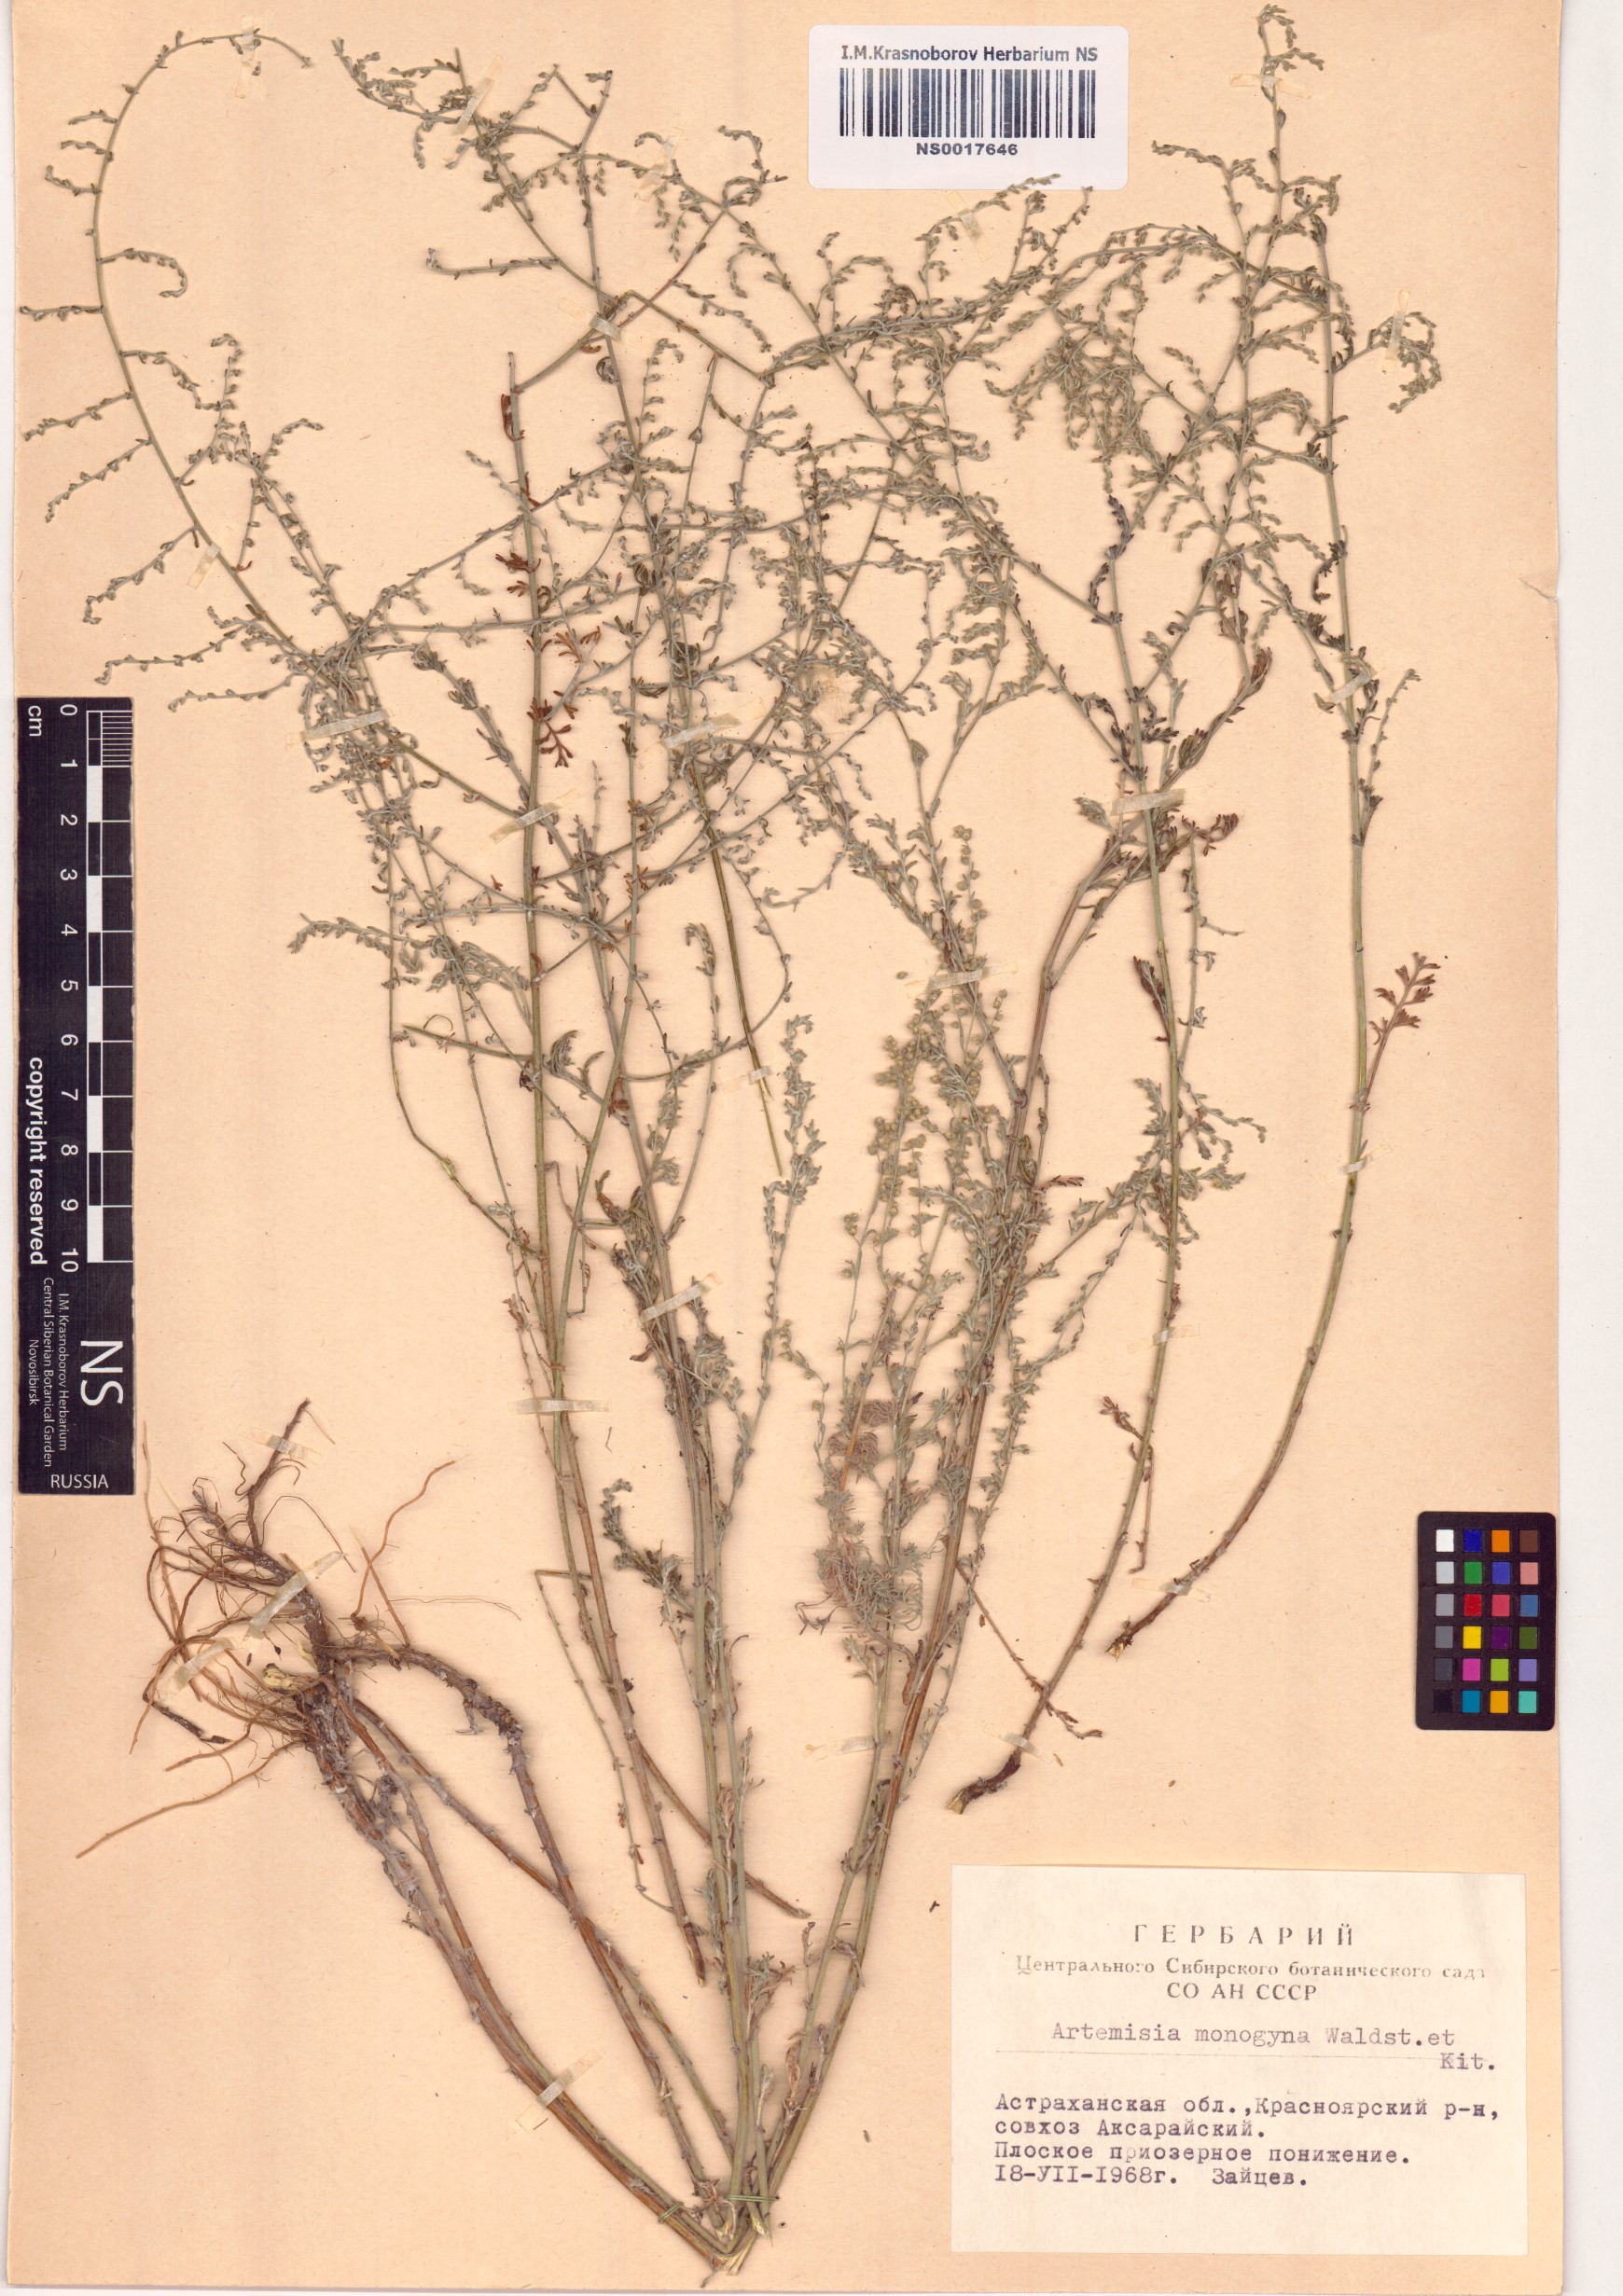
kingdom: Plantae
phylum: Tracheophyta
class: Magnoliopsida
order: Asterales
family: Asteraceae
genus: Artemisia
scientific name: Artemisia santonicum
